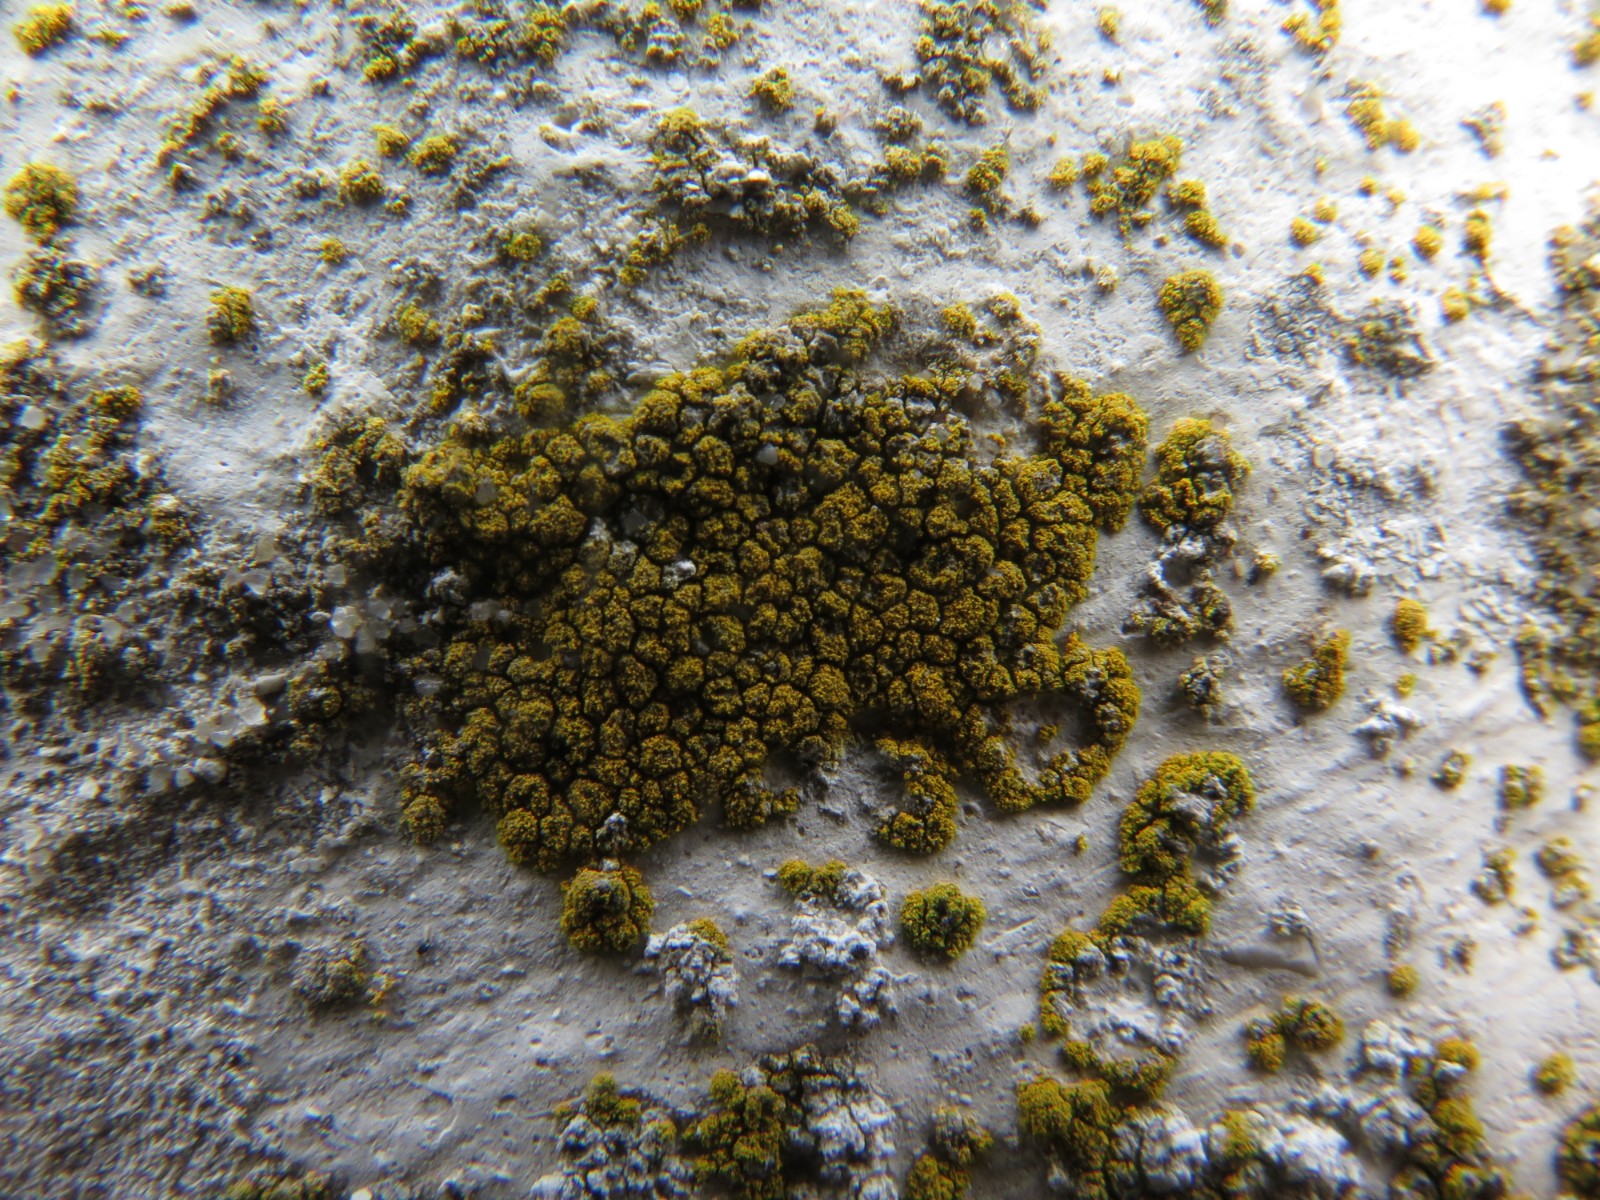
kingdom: Fungi
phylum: Ascomycota
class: Candelariomycetes
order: Candelariales
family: Candelariaceae
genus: Candelariella
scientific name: Candelariella vitellina
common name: almindelig æggeblommelav
